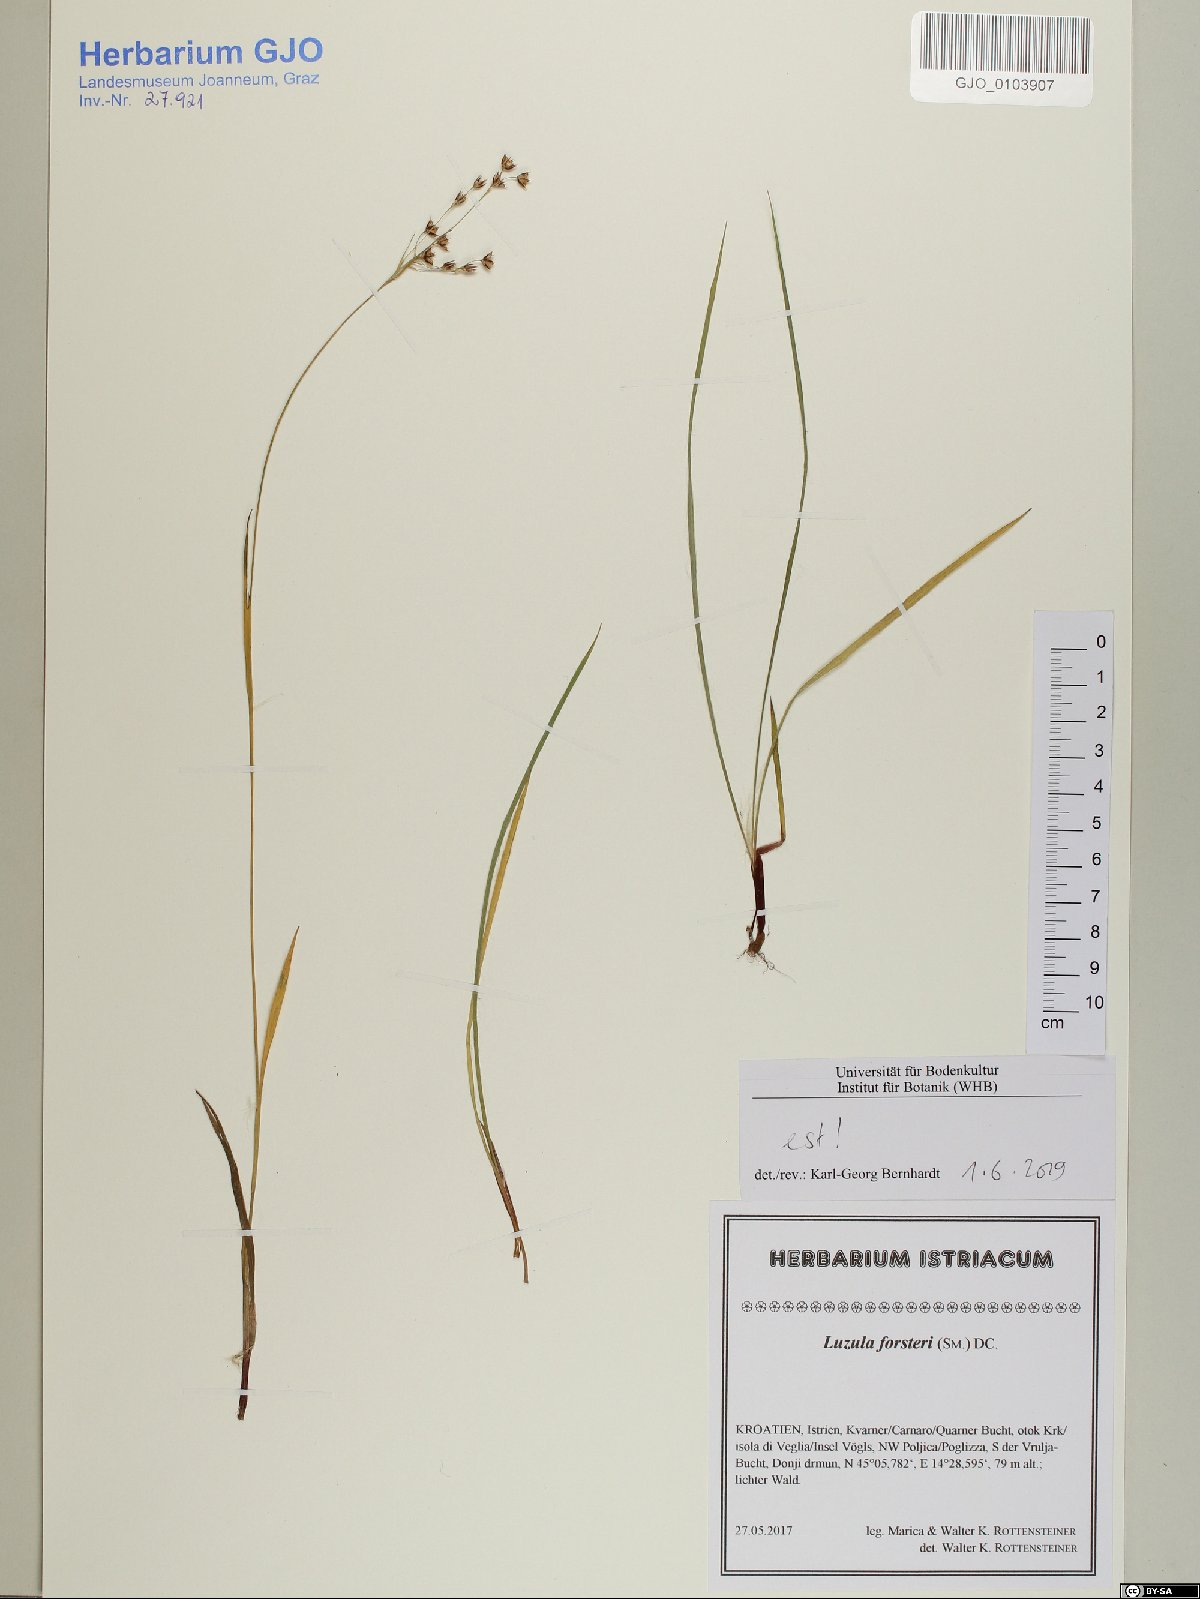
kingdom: Plantae
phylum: Tracheophyta
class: Liliopsida
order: Poales
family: Juncaceae
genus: Luzula
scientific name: Luzula forsteri
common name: Southern wood-rush
